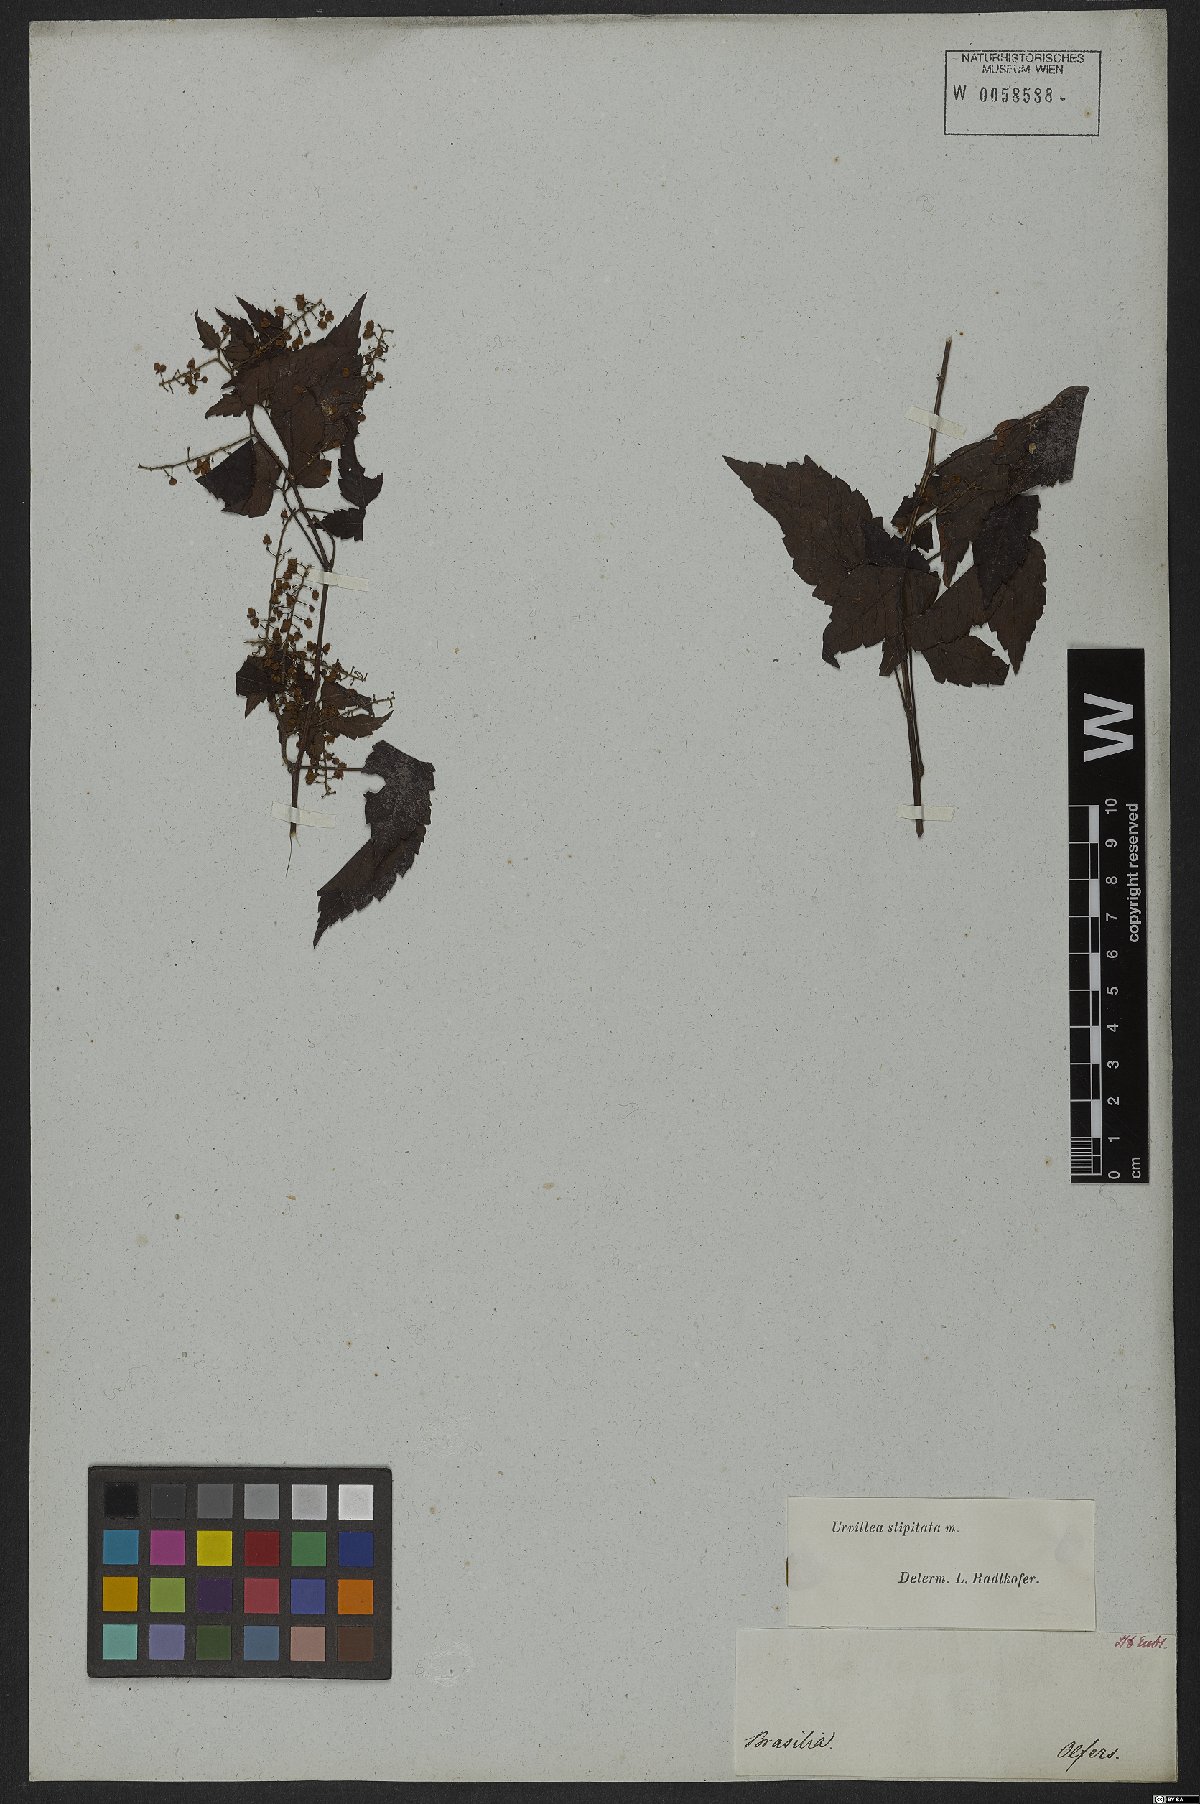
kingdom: Plantae
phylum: Tracheophyta
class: Magnoliopsida
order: Sapindales
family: Sapindaceae
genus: Urvillea
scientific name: Urvillea stipitata
